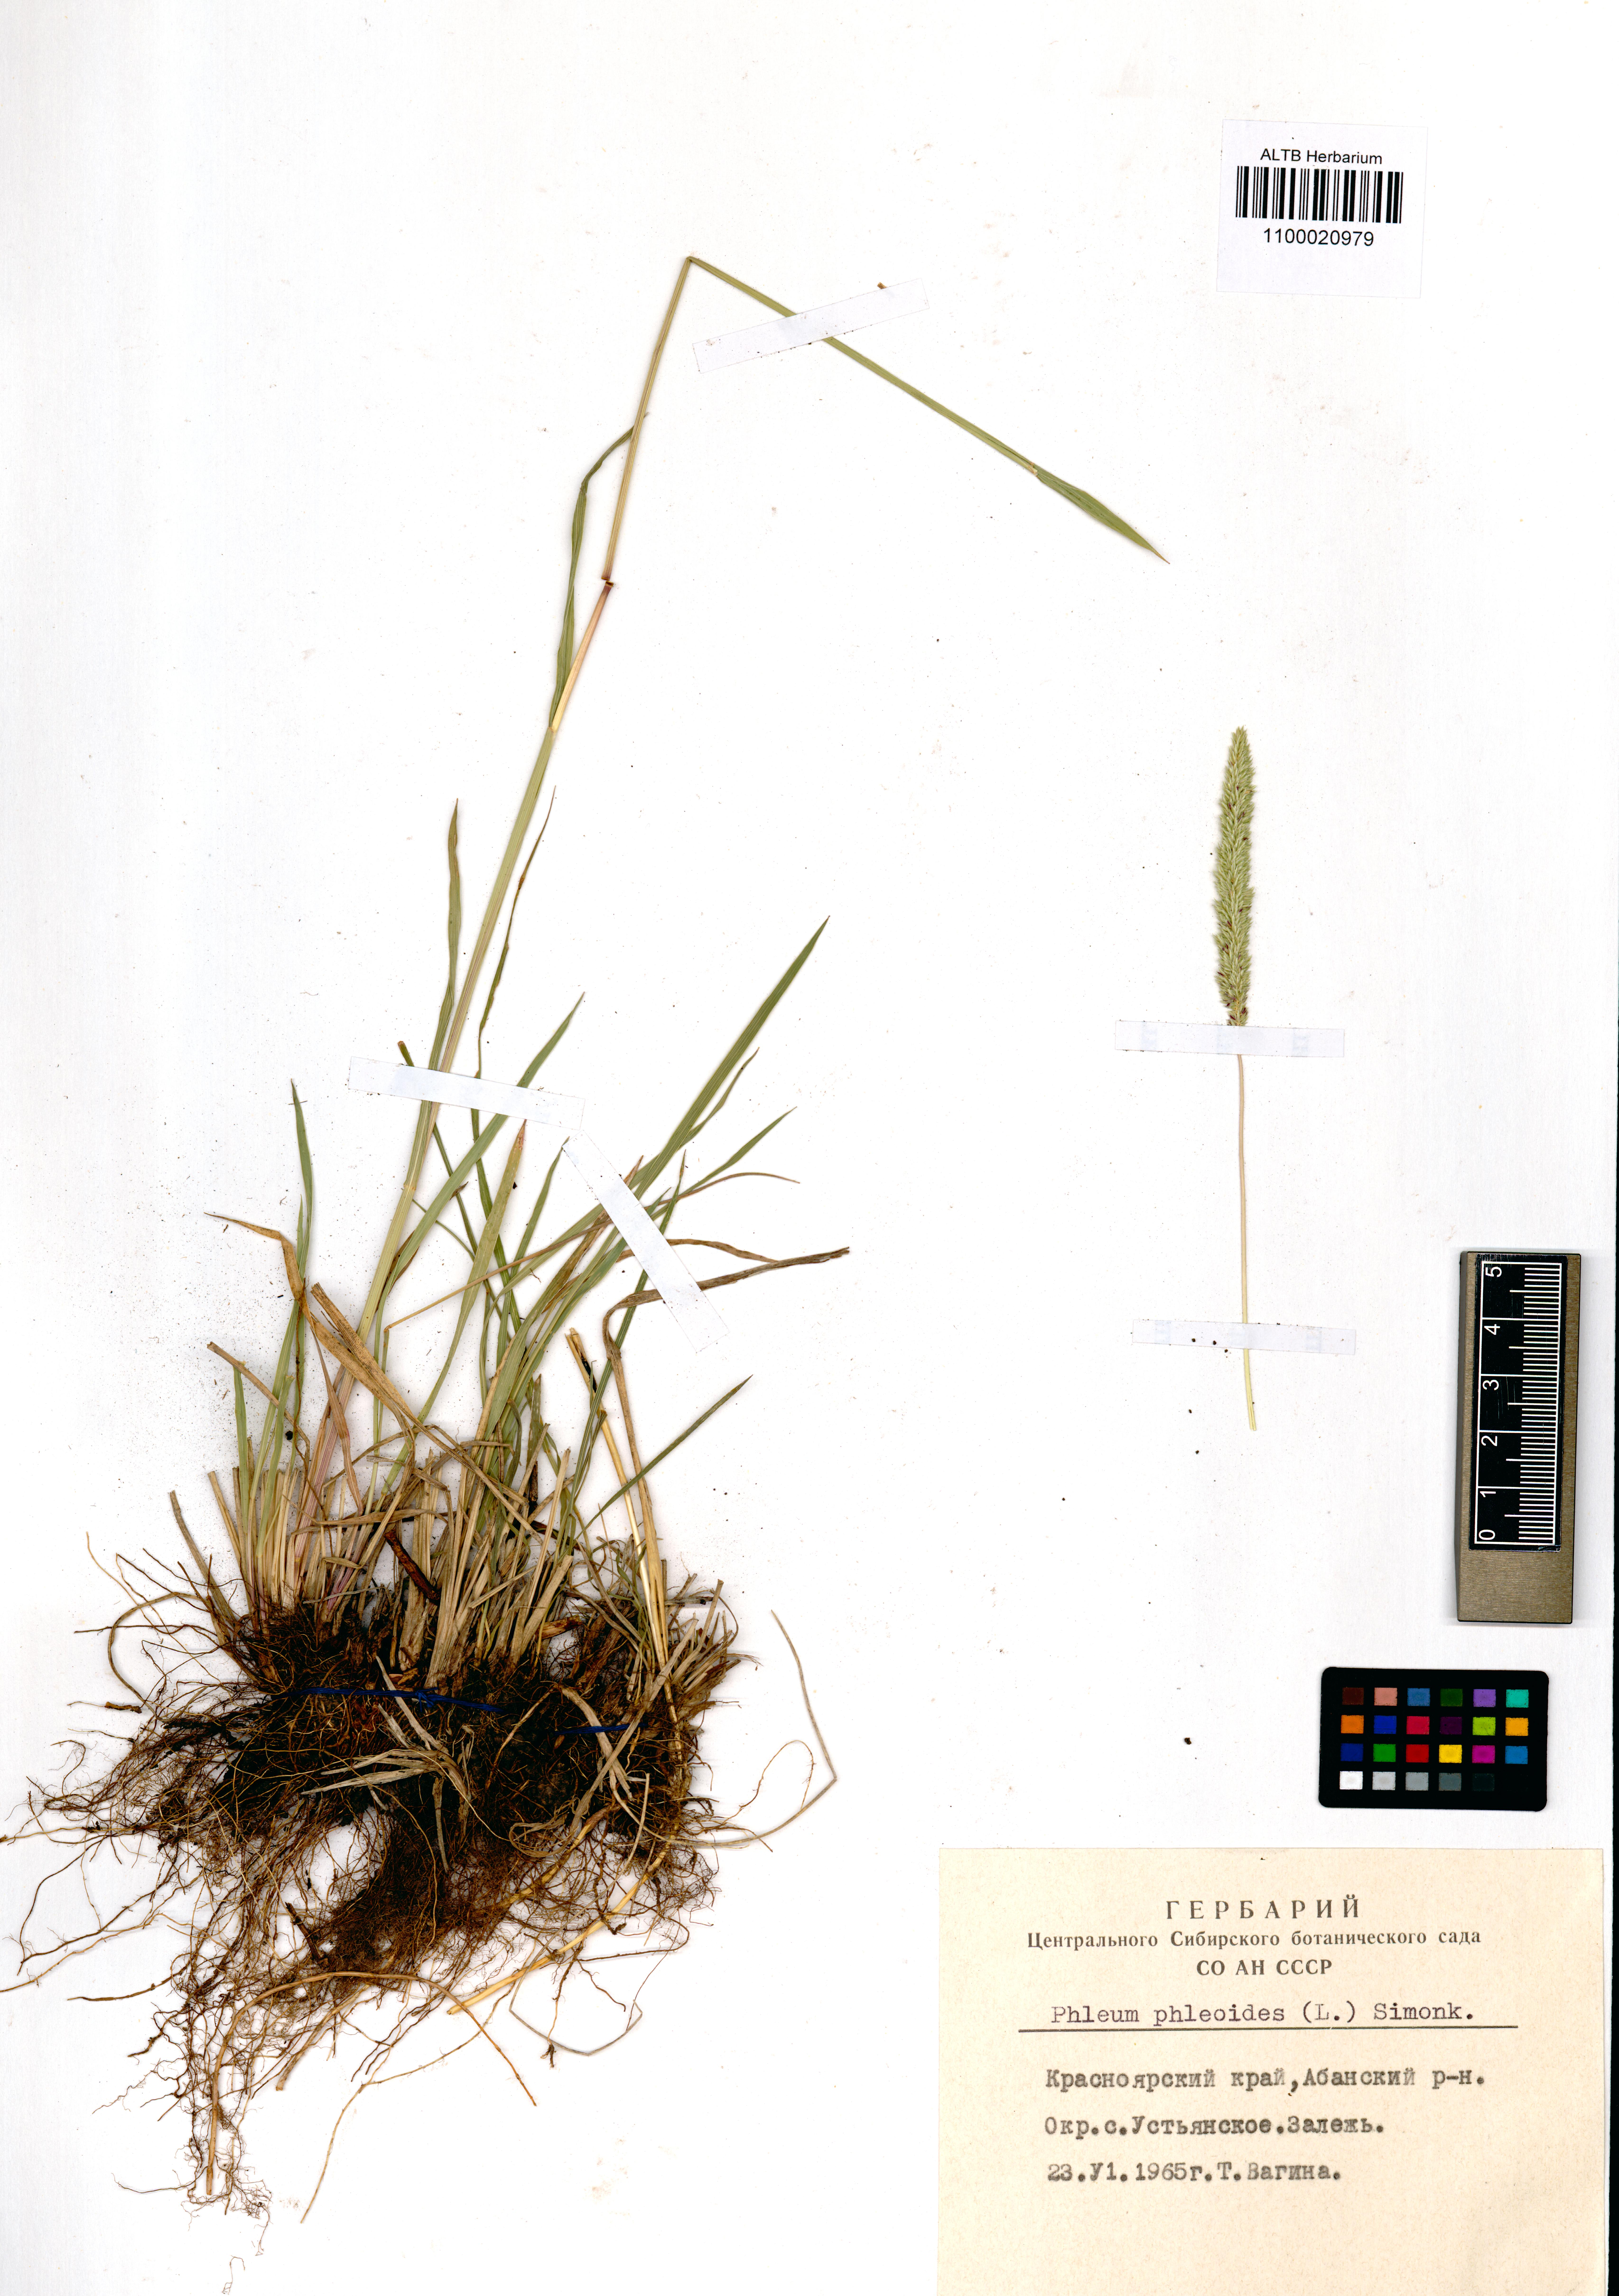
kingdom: Plantae
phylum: Tracheophyta
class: Liliopsida
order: Poales
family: Poaceae
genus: Phleum
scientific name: Phleum phleoides
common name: Purple-stem cat's-tail
